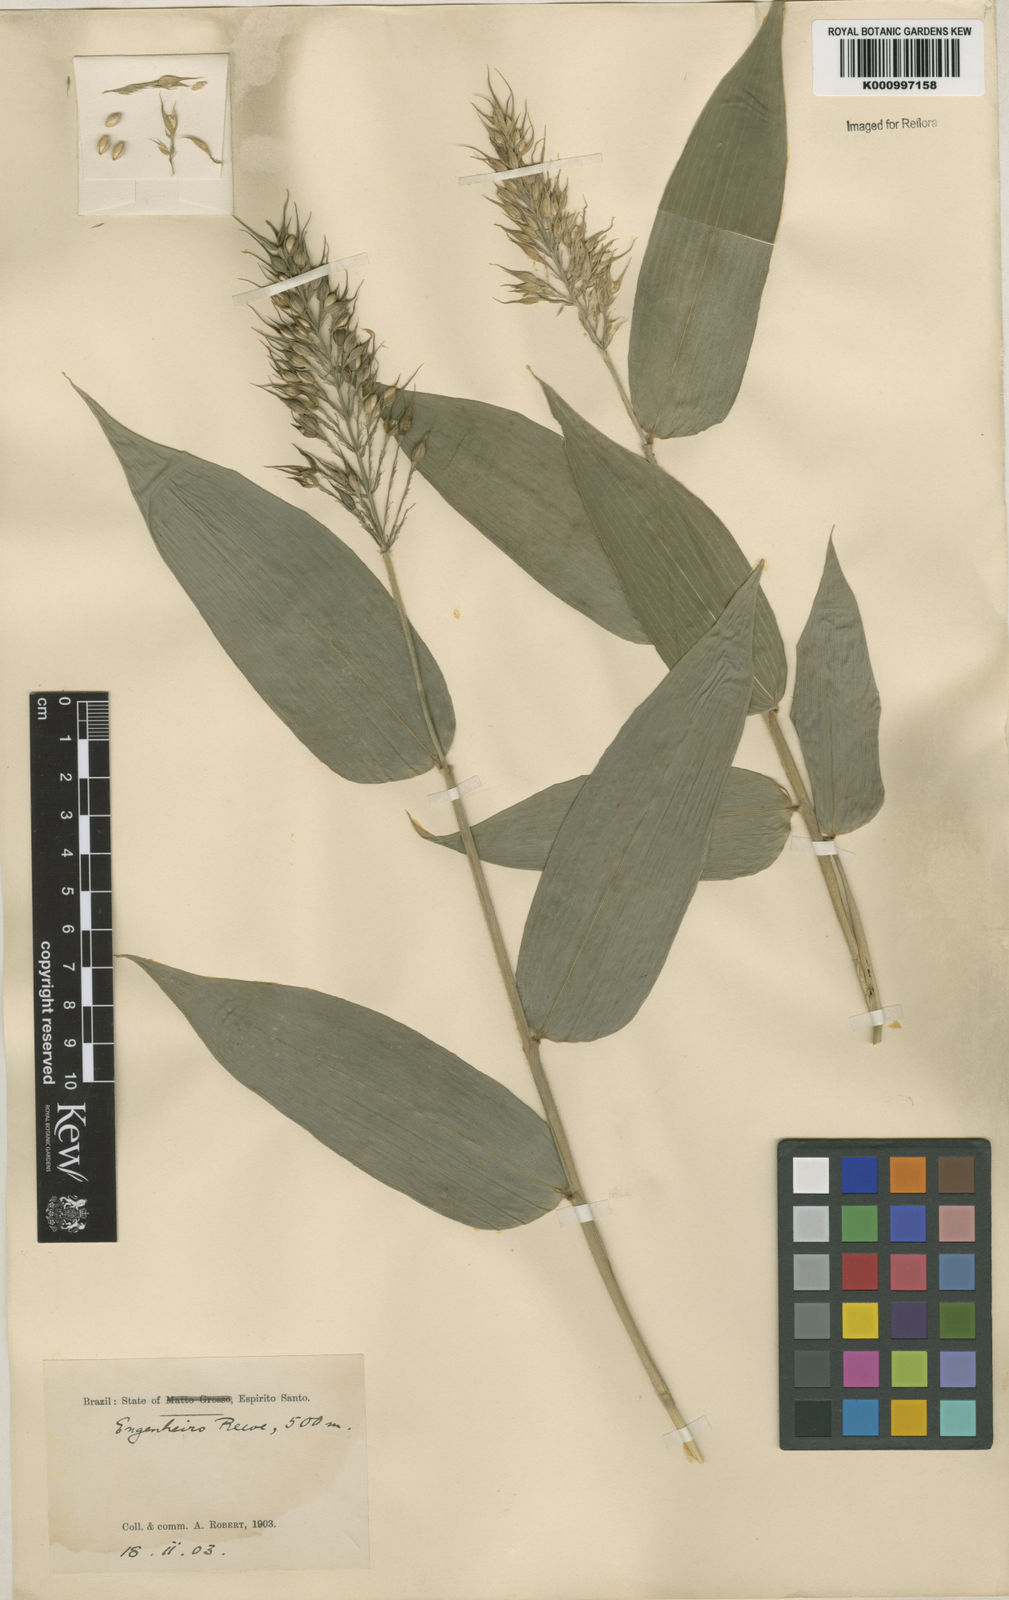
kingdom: Plantae
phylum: Tracheophyta
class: Liliopsida
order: Poales
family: Poaceae
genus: Olyra
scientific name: Olyra latifolia
